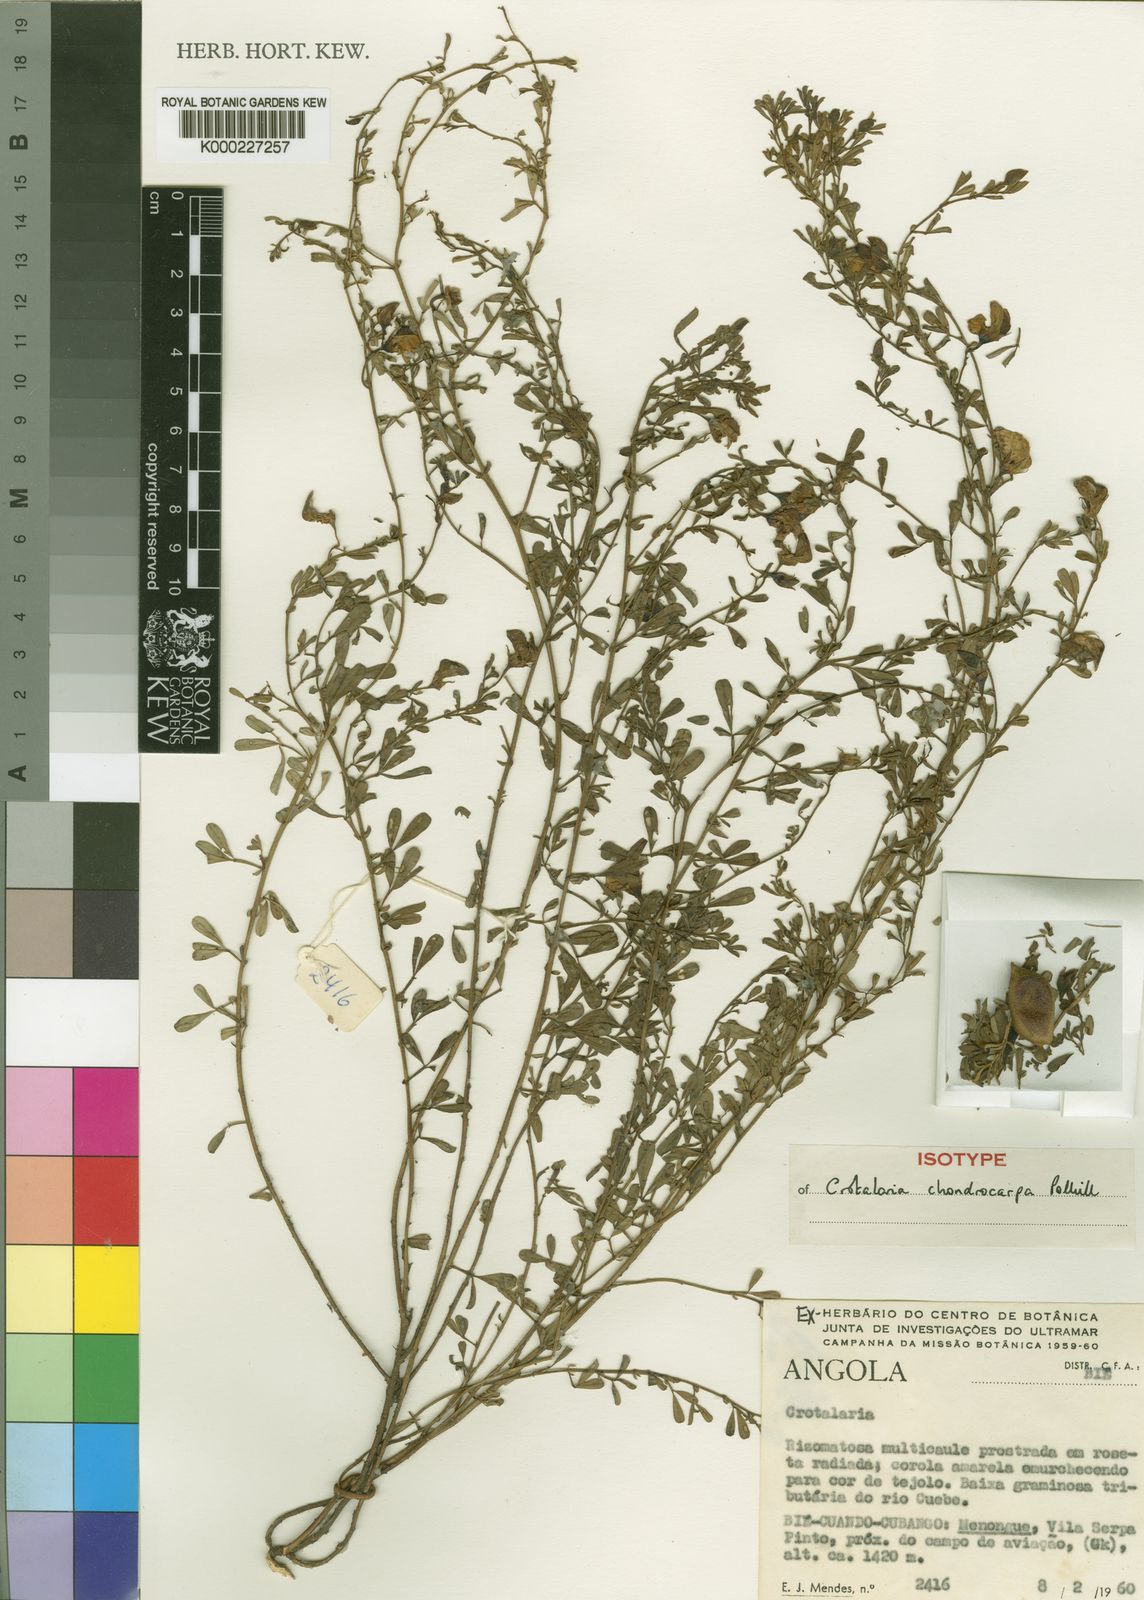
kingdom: Plantae
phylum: Tracheophyta
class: Magnoliopsida
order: Fabales
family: Fabaceae
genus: Crotalaria
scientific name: Crotalaria chondrocarpa
